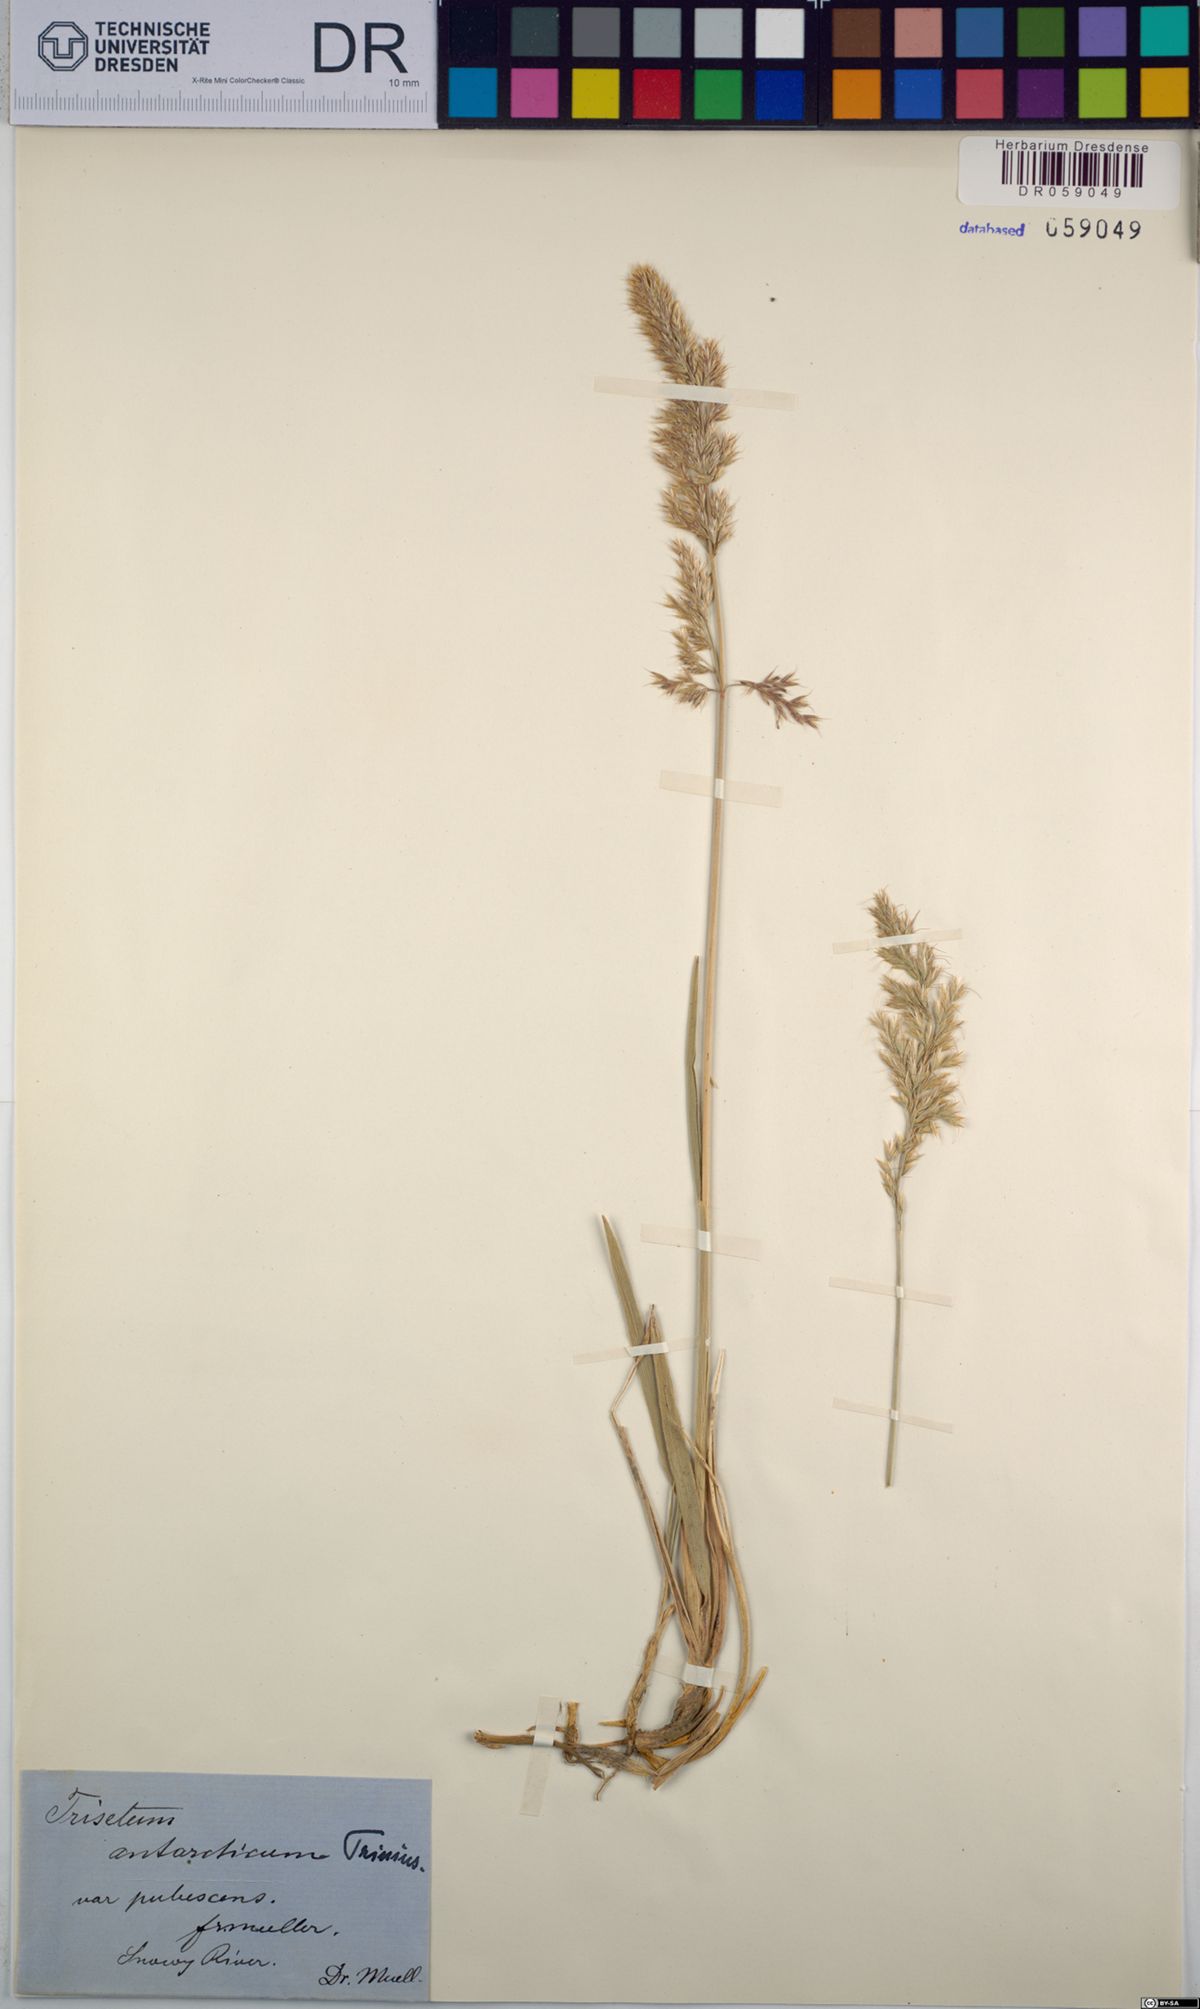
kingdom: Plantae
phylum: Tracheophyta
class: Liliopsida
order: Poales
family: Poaceae
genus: Koeleria
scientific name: Koeleria antarctica
